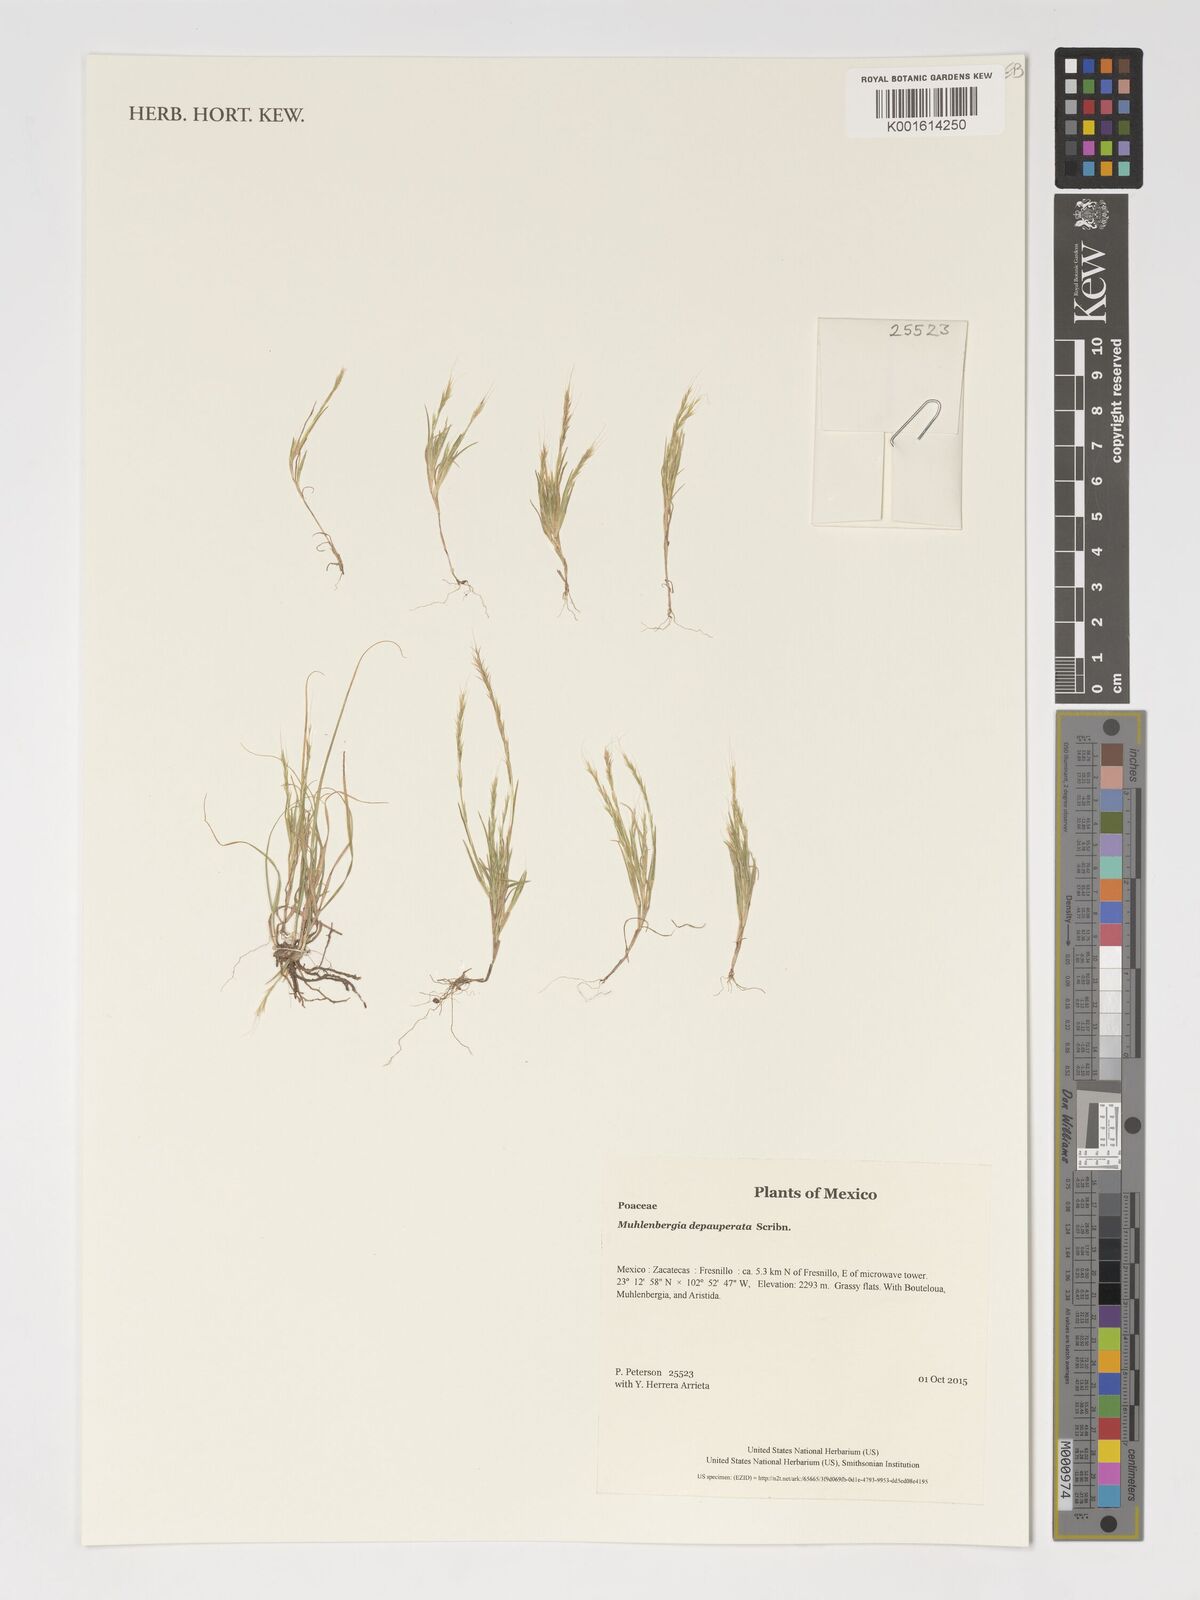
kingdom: Plantae
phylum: Tracheophyta
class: Liliopsida
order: Poales
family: Poaceae
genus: Muhlenbergia
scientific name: Muhlenbergia depauperata
